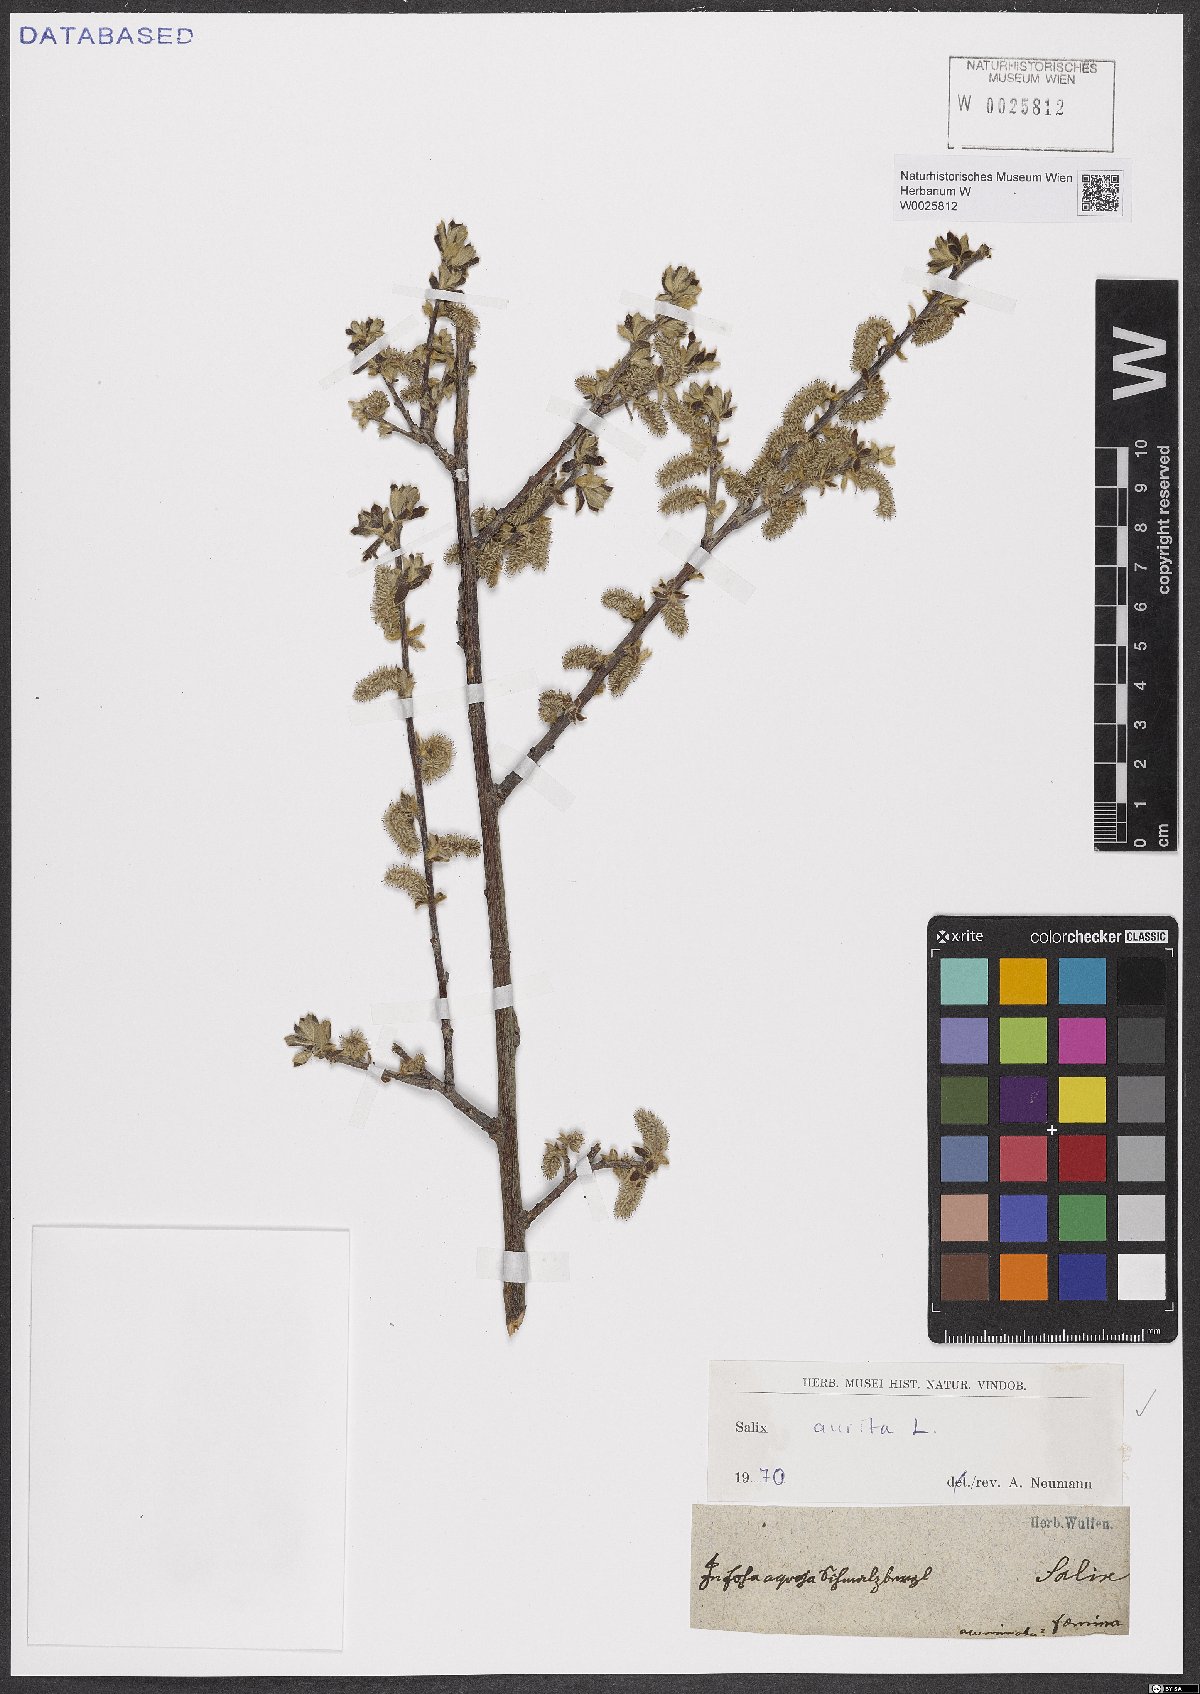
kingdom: Plantae
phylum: Tracheophyta
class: Magnoliopsida
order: Malpighiales
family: Salicaceae
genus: Salix
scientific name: Salix aurita
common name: Eared willow
